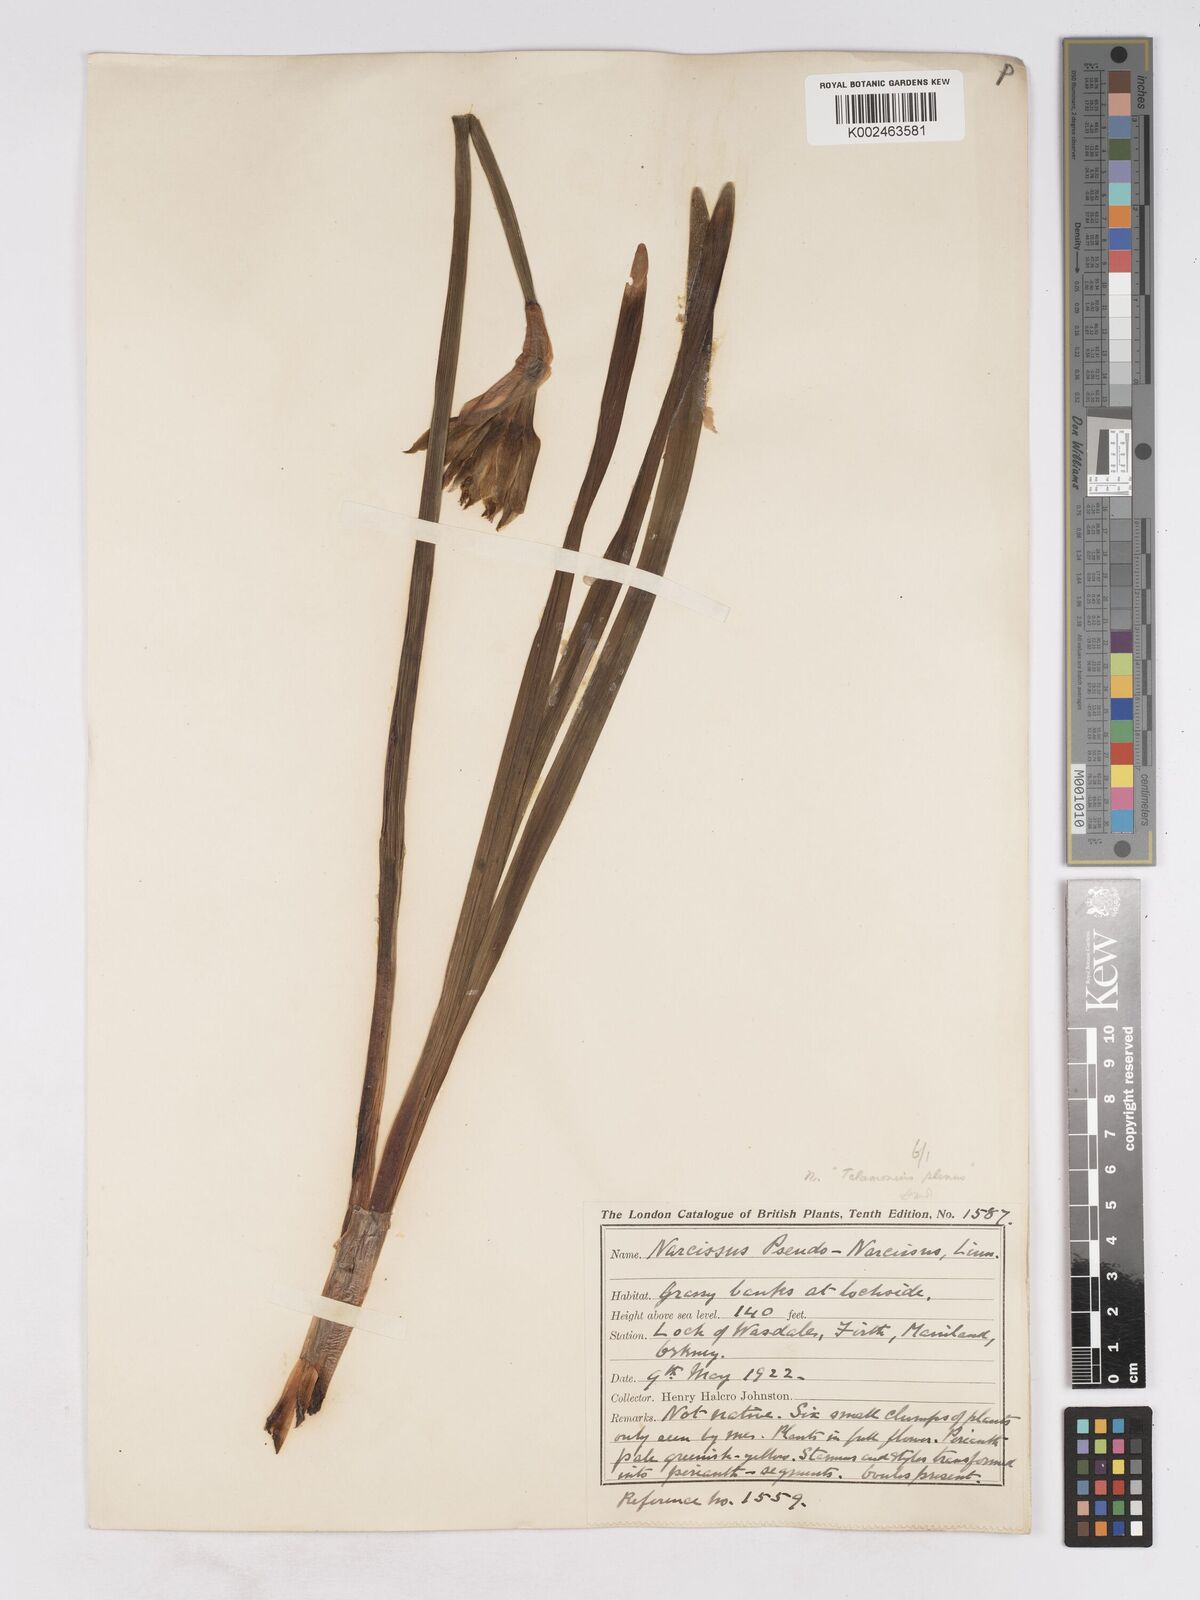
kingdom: Plantae
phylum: Tracheophyta
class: Liliopsida
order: Asparagales
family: Amaryllidaceae
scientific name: Amaryllidaceae
